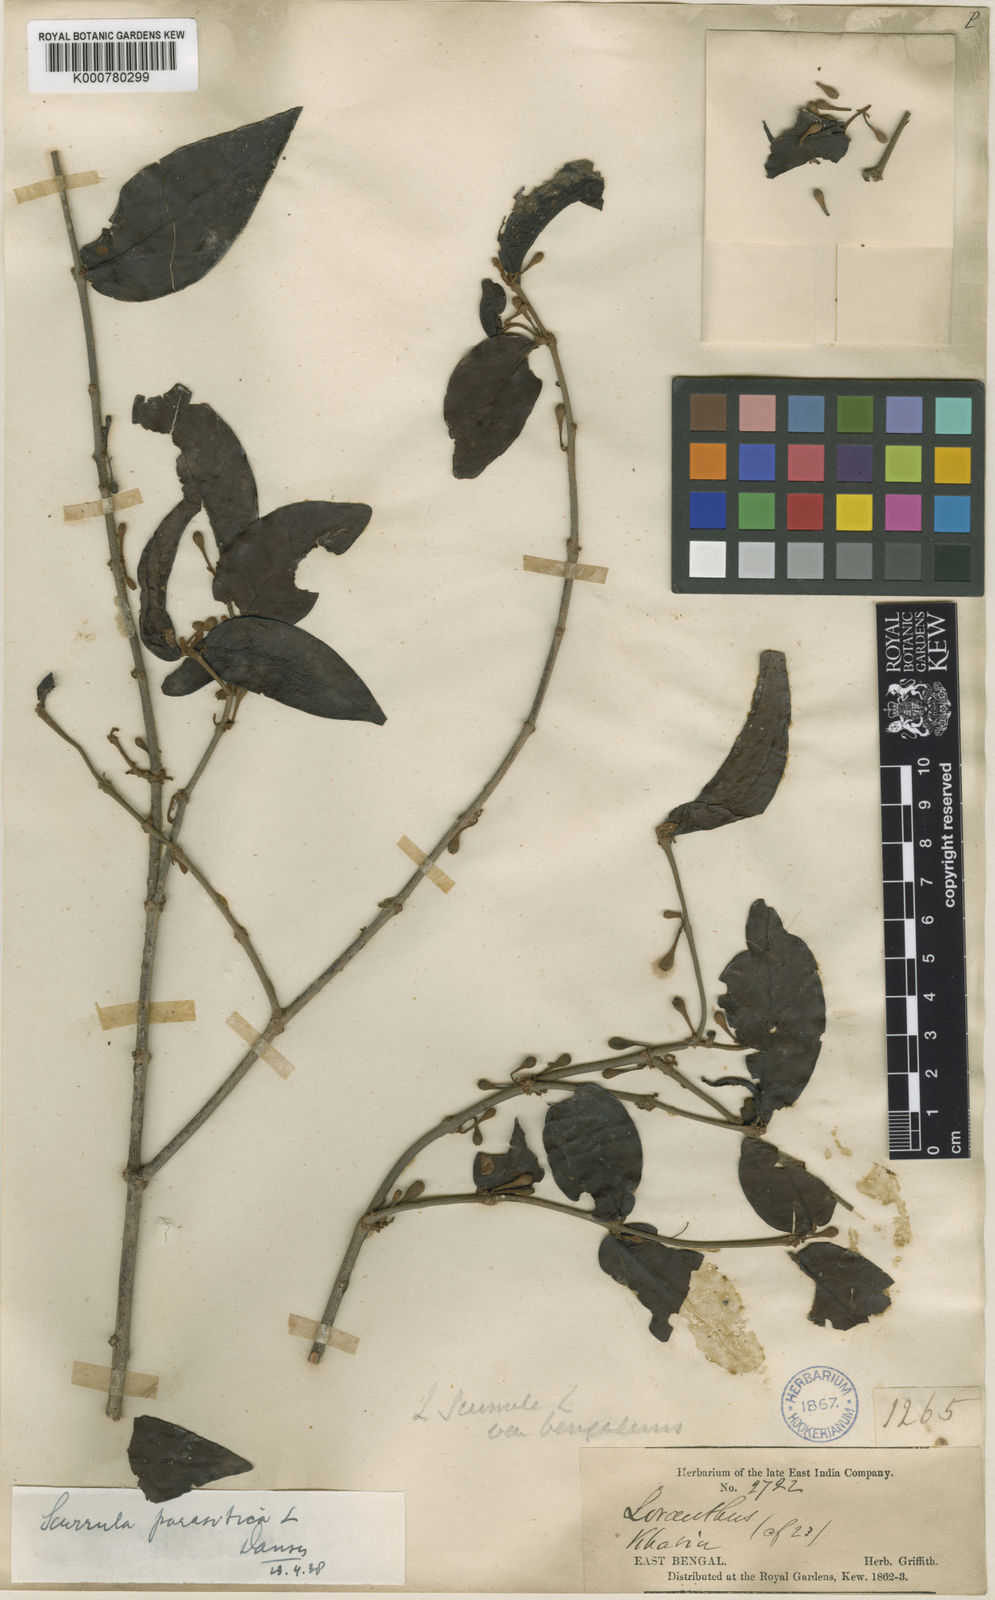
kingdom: Plantae
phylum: Tracheophyta
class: Magnoliopsida
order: Santalales
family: Loranthaceae
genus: Scurrula
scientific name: Scurrula parasitica
